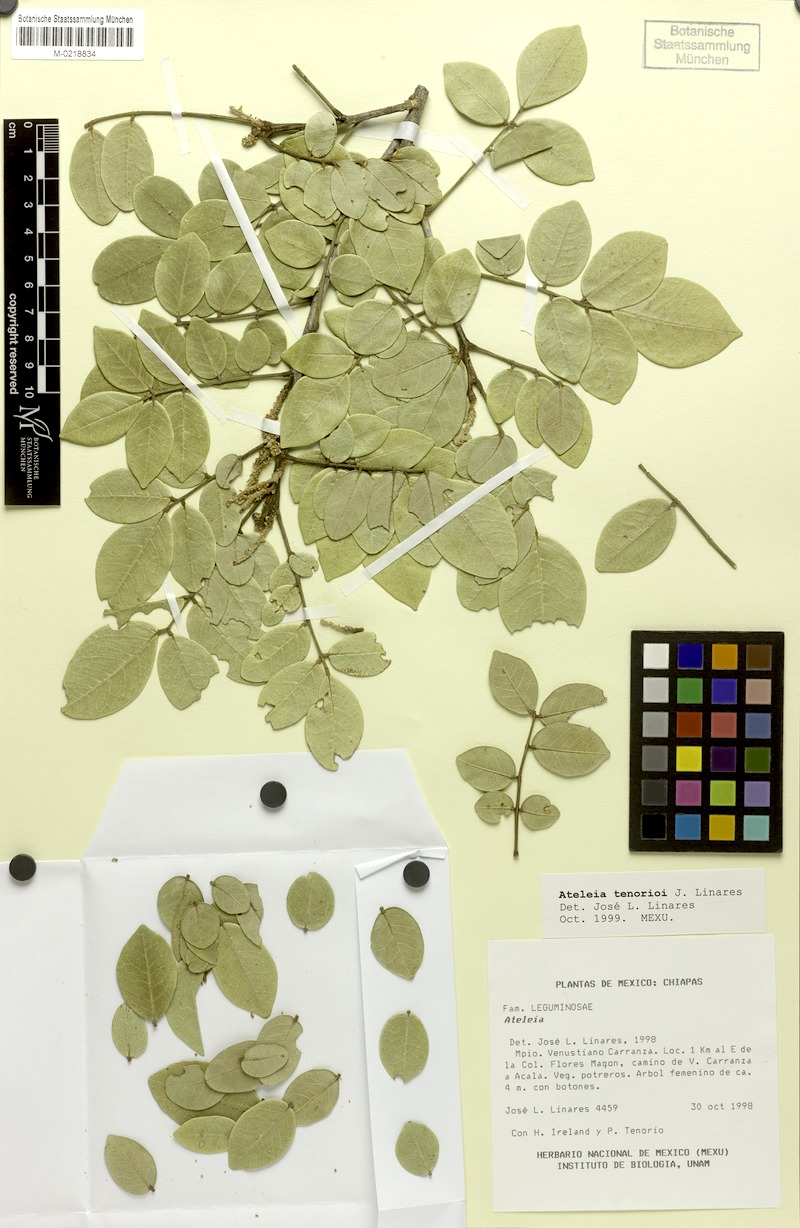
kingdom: Plantae
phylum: Tracheophyta
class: Magnoliopsida
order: Fabales
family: Fabaceae
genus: Ateleia
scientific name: Ateleia tenorioi
